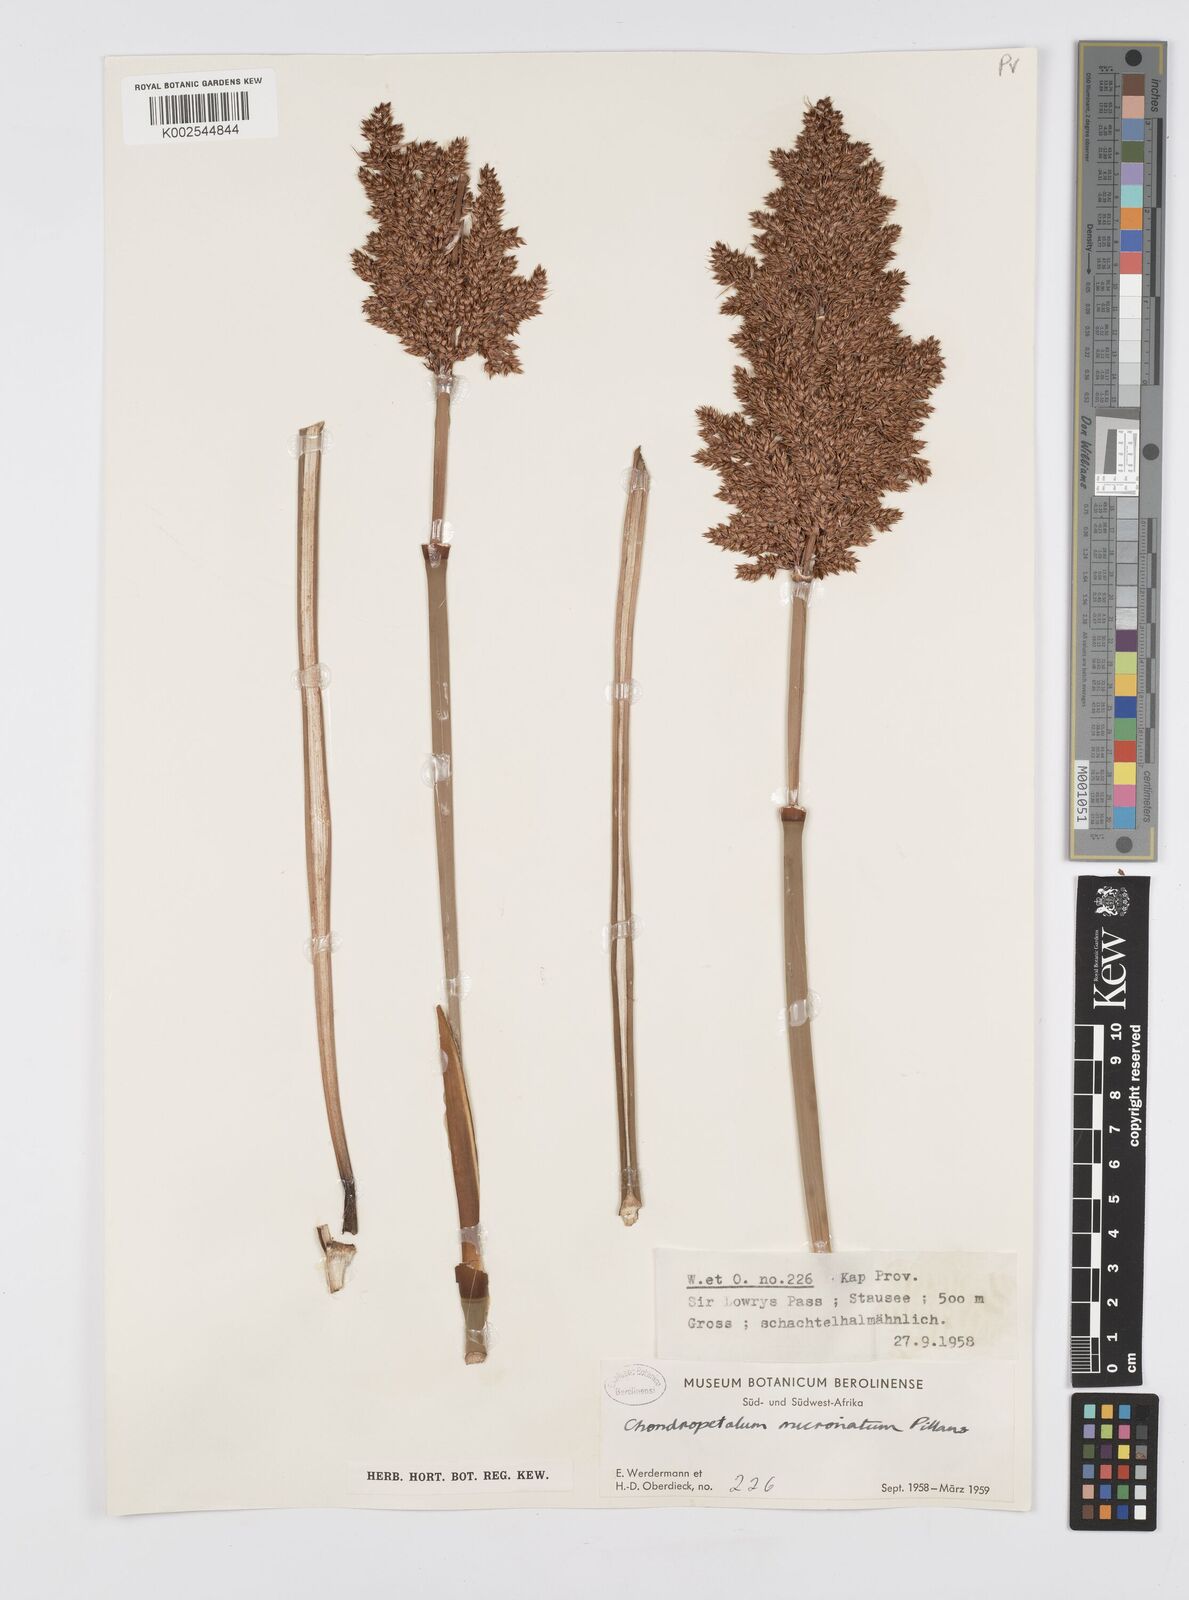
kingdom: Plantae
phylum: Tracheophyta
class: Liliopsida
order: Poales
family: Restionaceae
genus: Elegia
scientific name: Elegia mucronata
